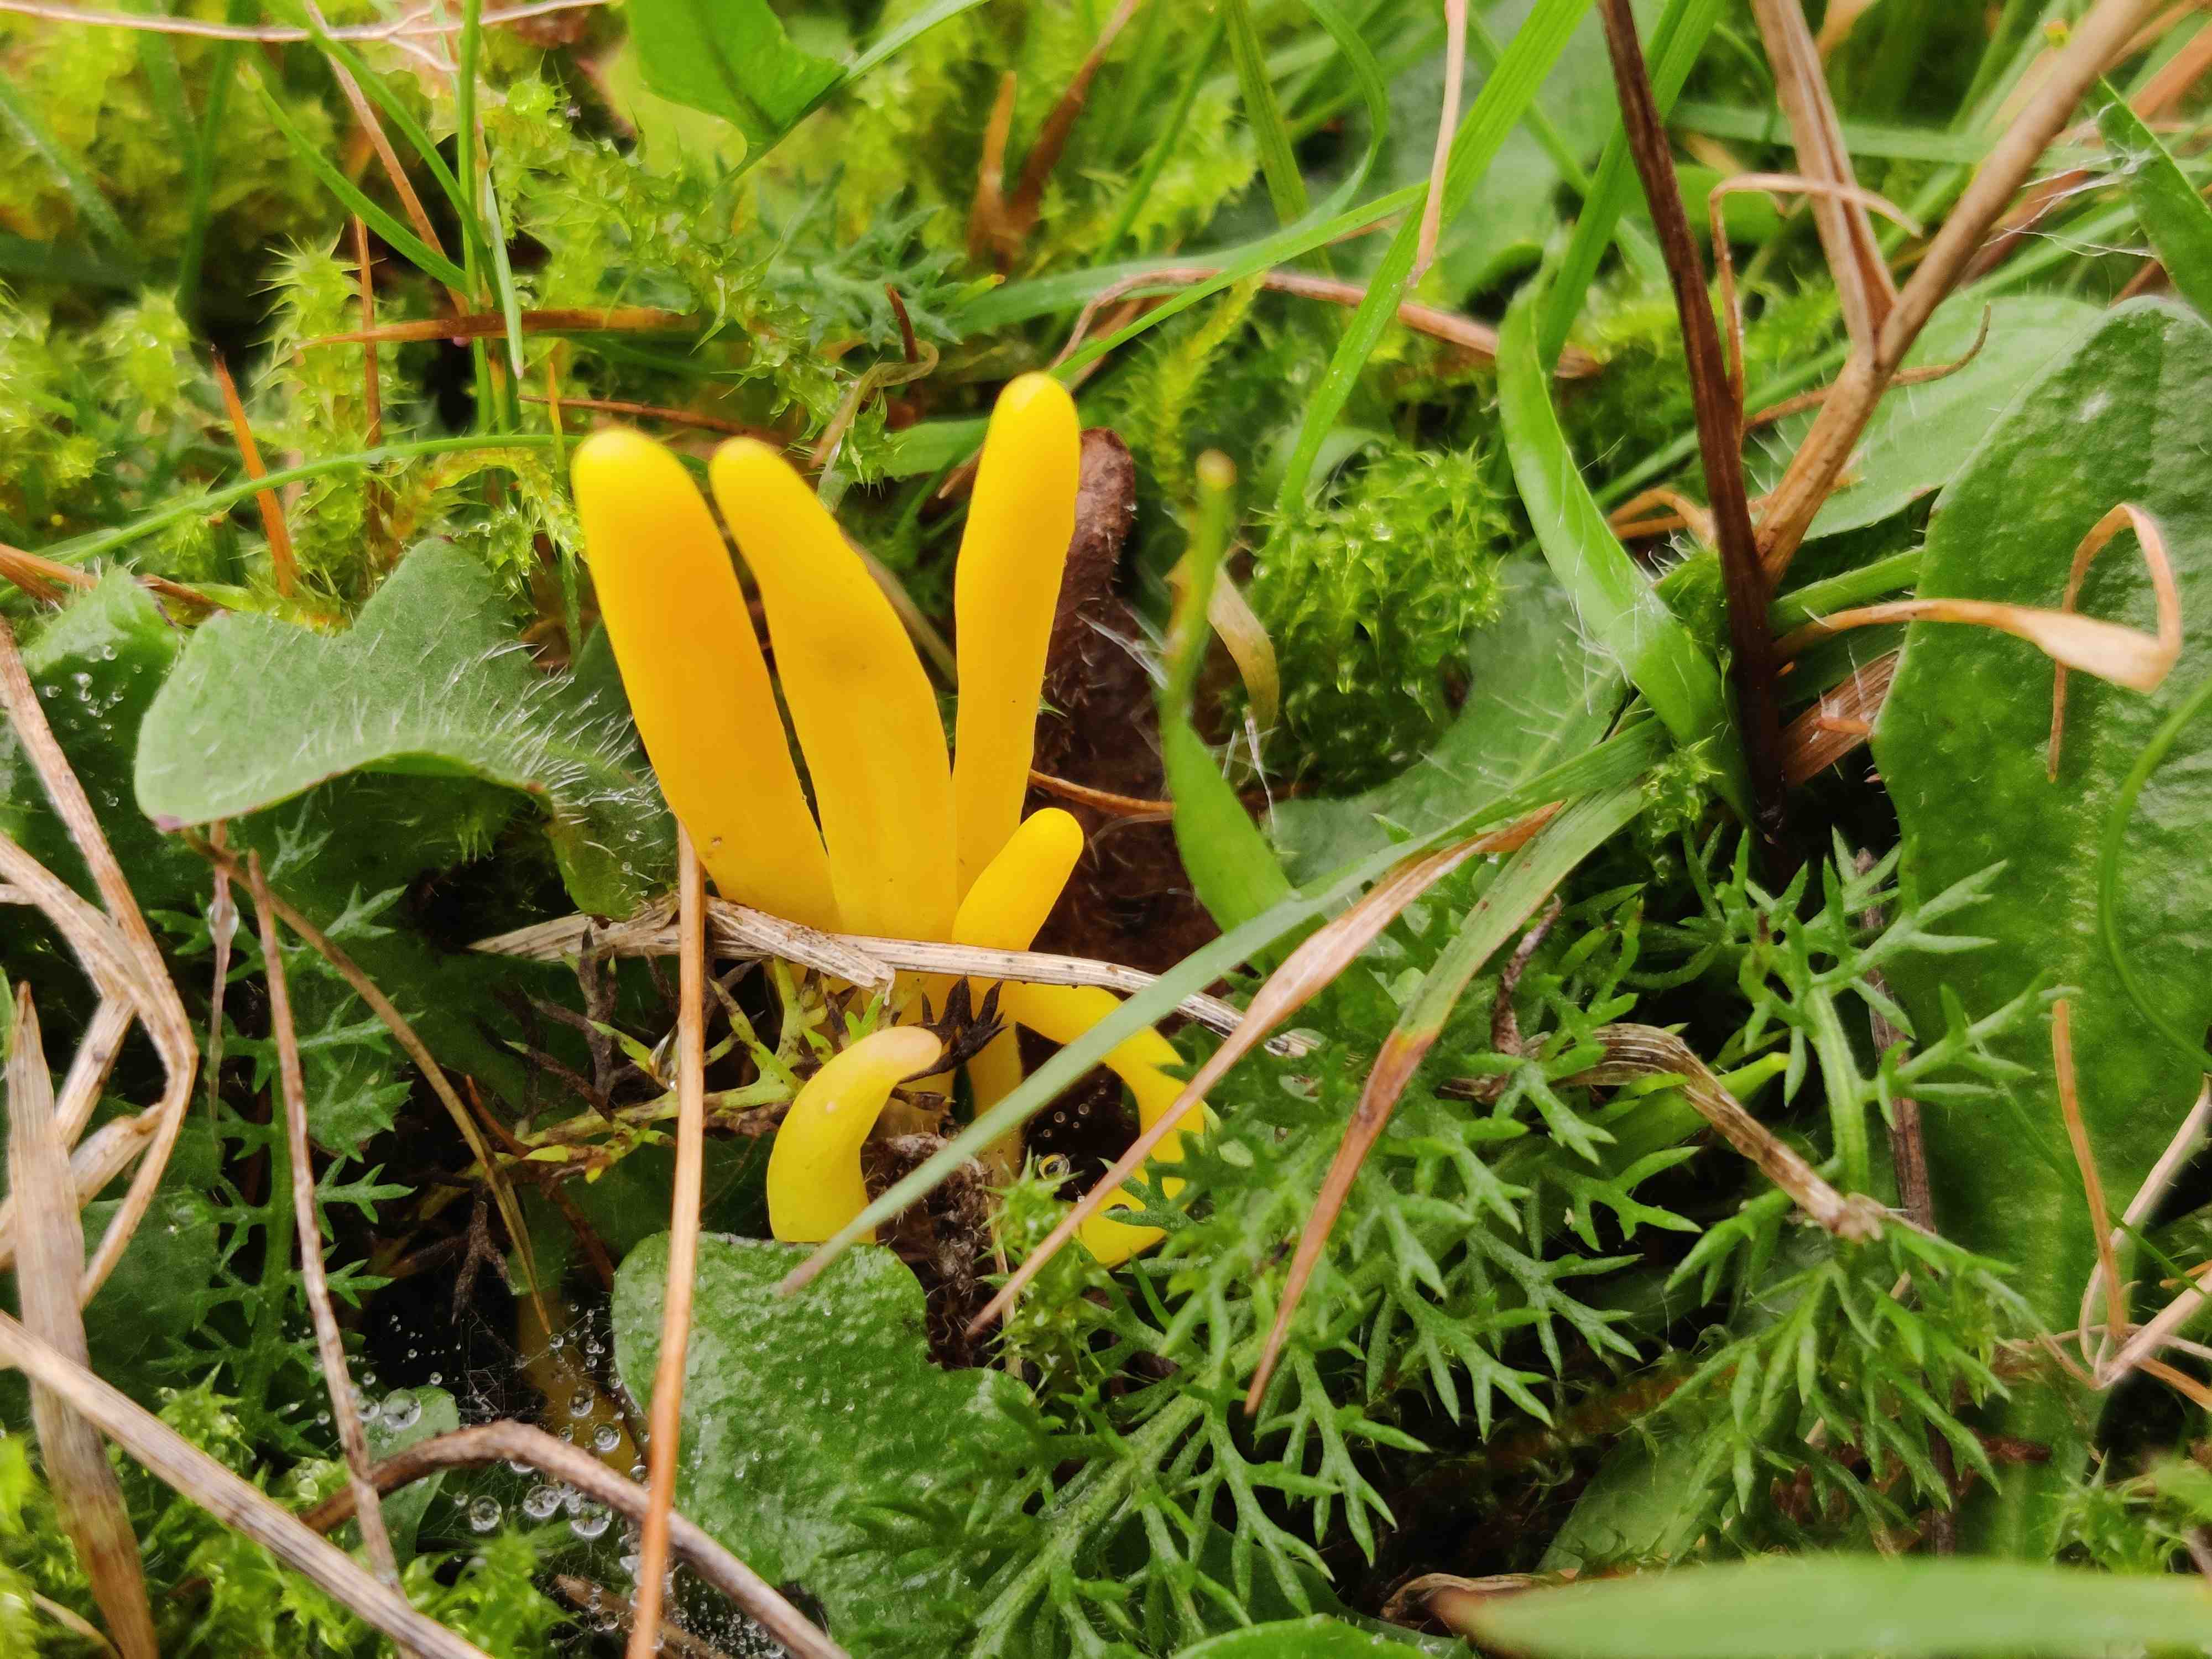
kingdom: Fungi
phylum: Basidiomycota
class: Agaricomycetes
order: Agaricales
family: Clavariaceae
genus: Clavulinopsis
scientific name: Clavulinopsis
